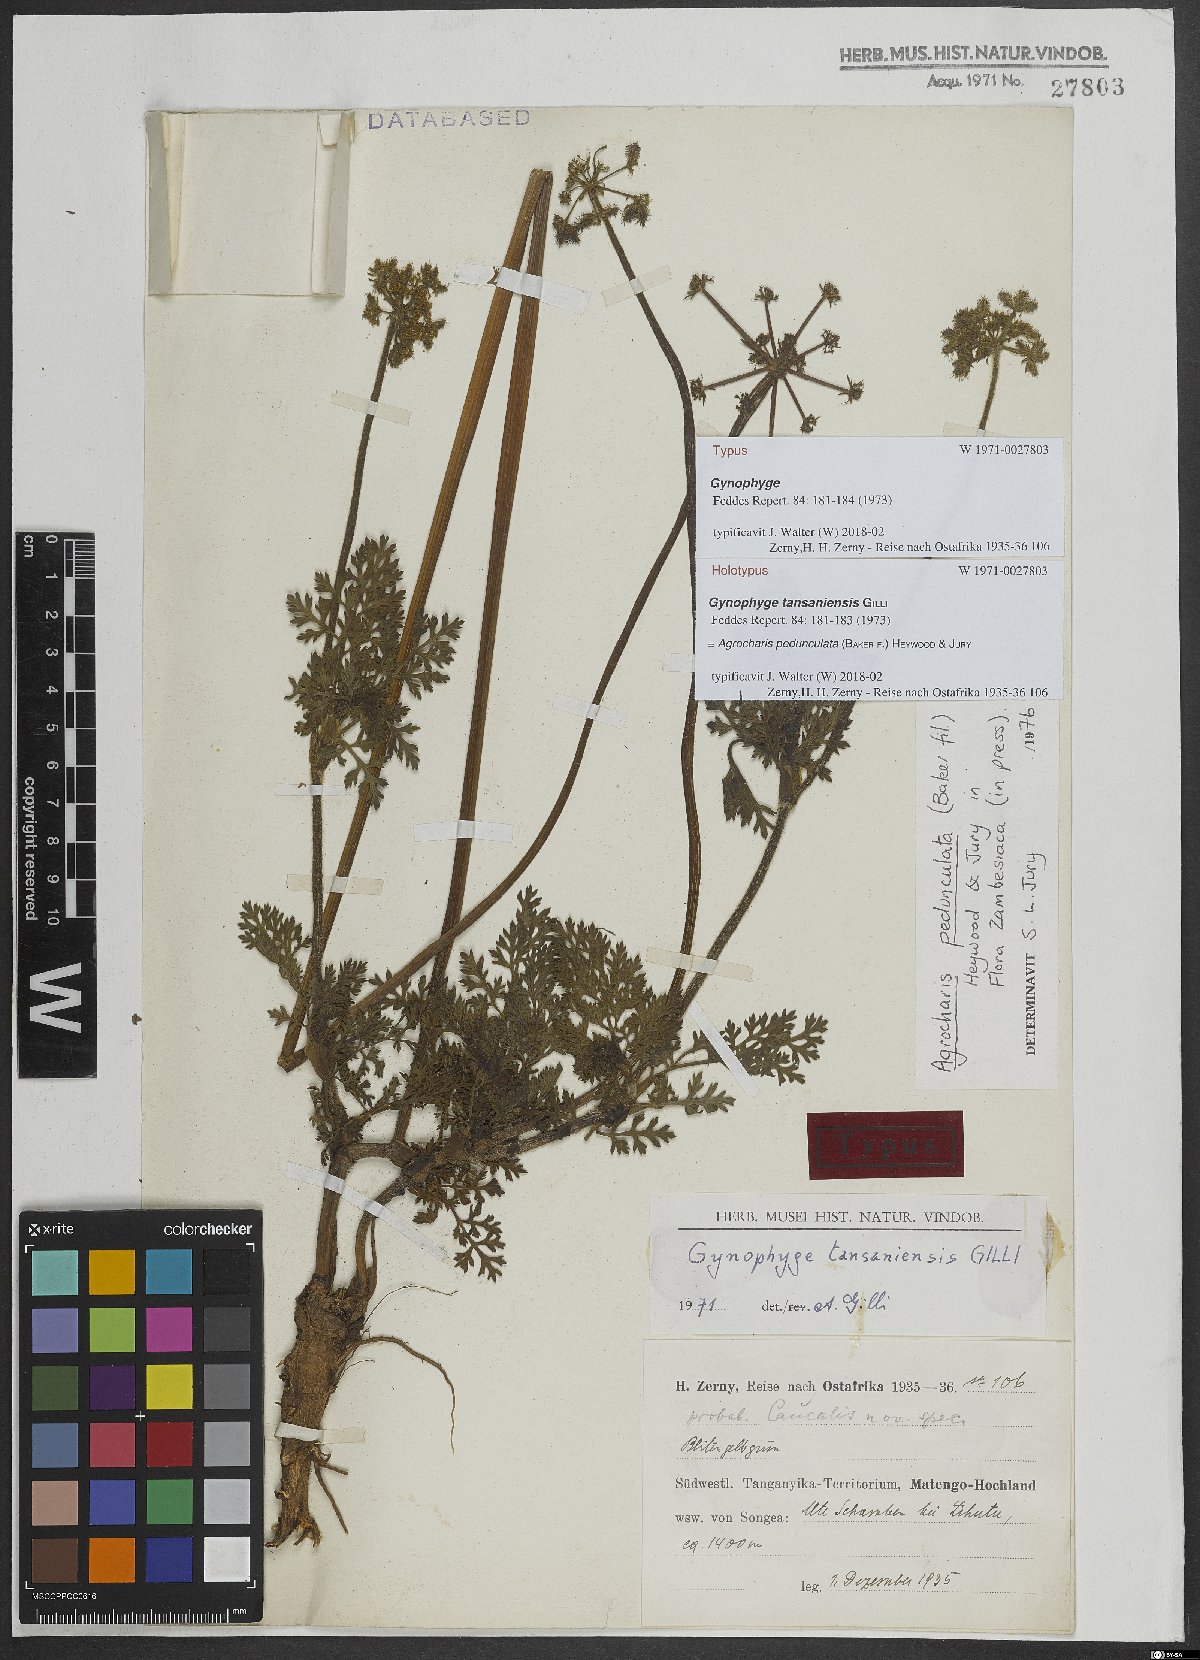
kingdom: Plantae
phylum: Tracheophyta
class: Magnoliopsida
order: Apiales
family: Apiaceae
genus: Daucus
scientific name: Daucus pedunculatus
